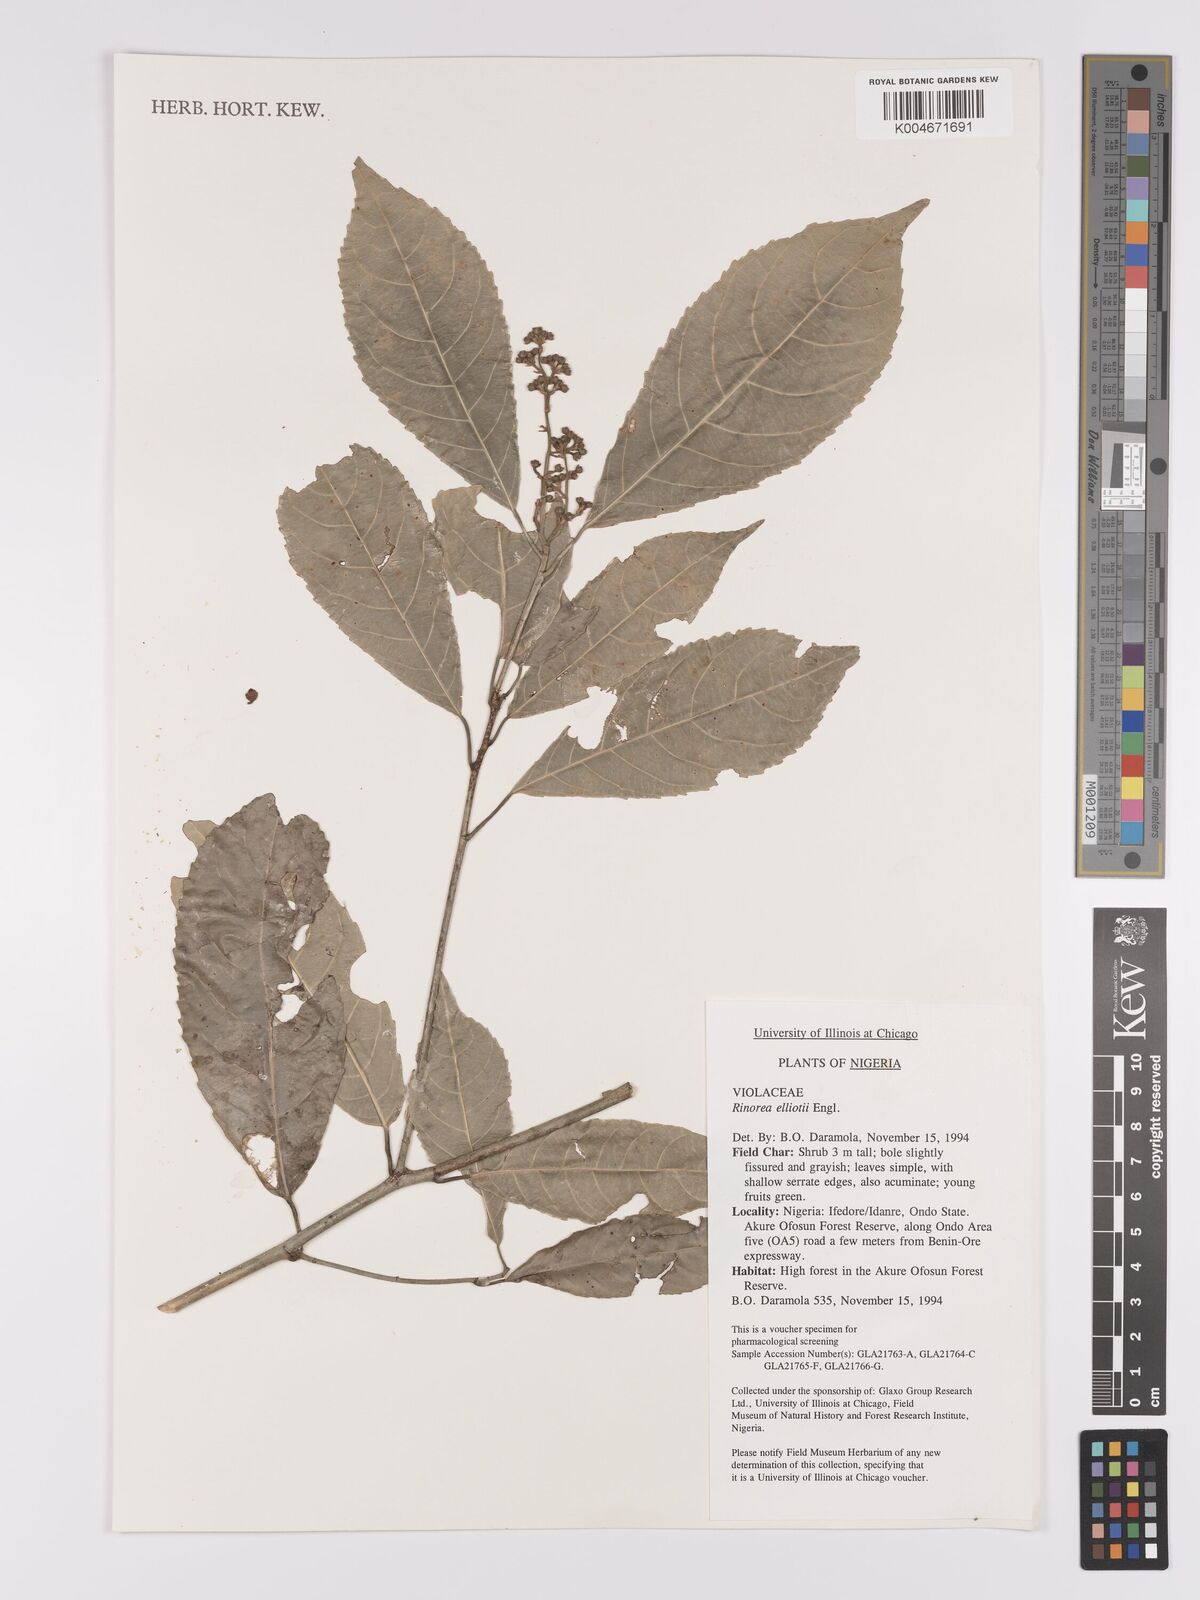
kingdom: Plantae
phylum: Tracheophyta
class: Magnoliopsida
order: Malpighiales
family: Violaceae
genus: Rinorea
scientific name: Rinorea welwitschii
